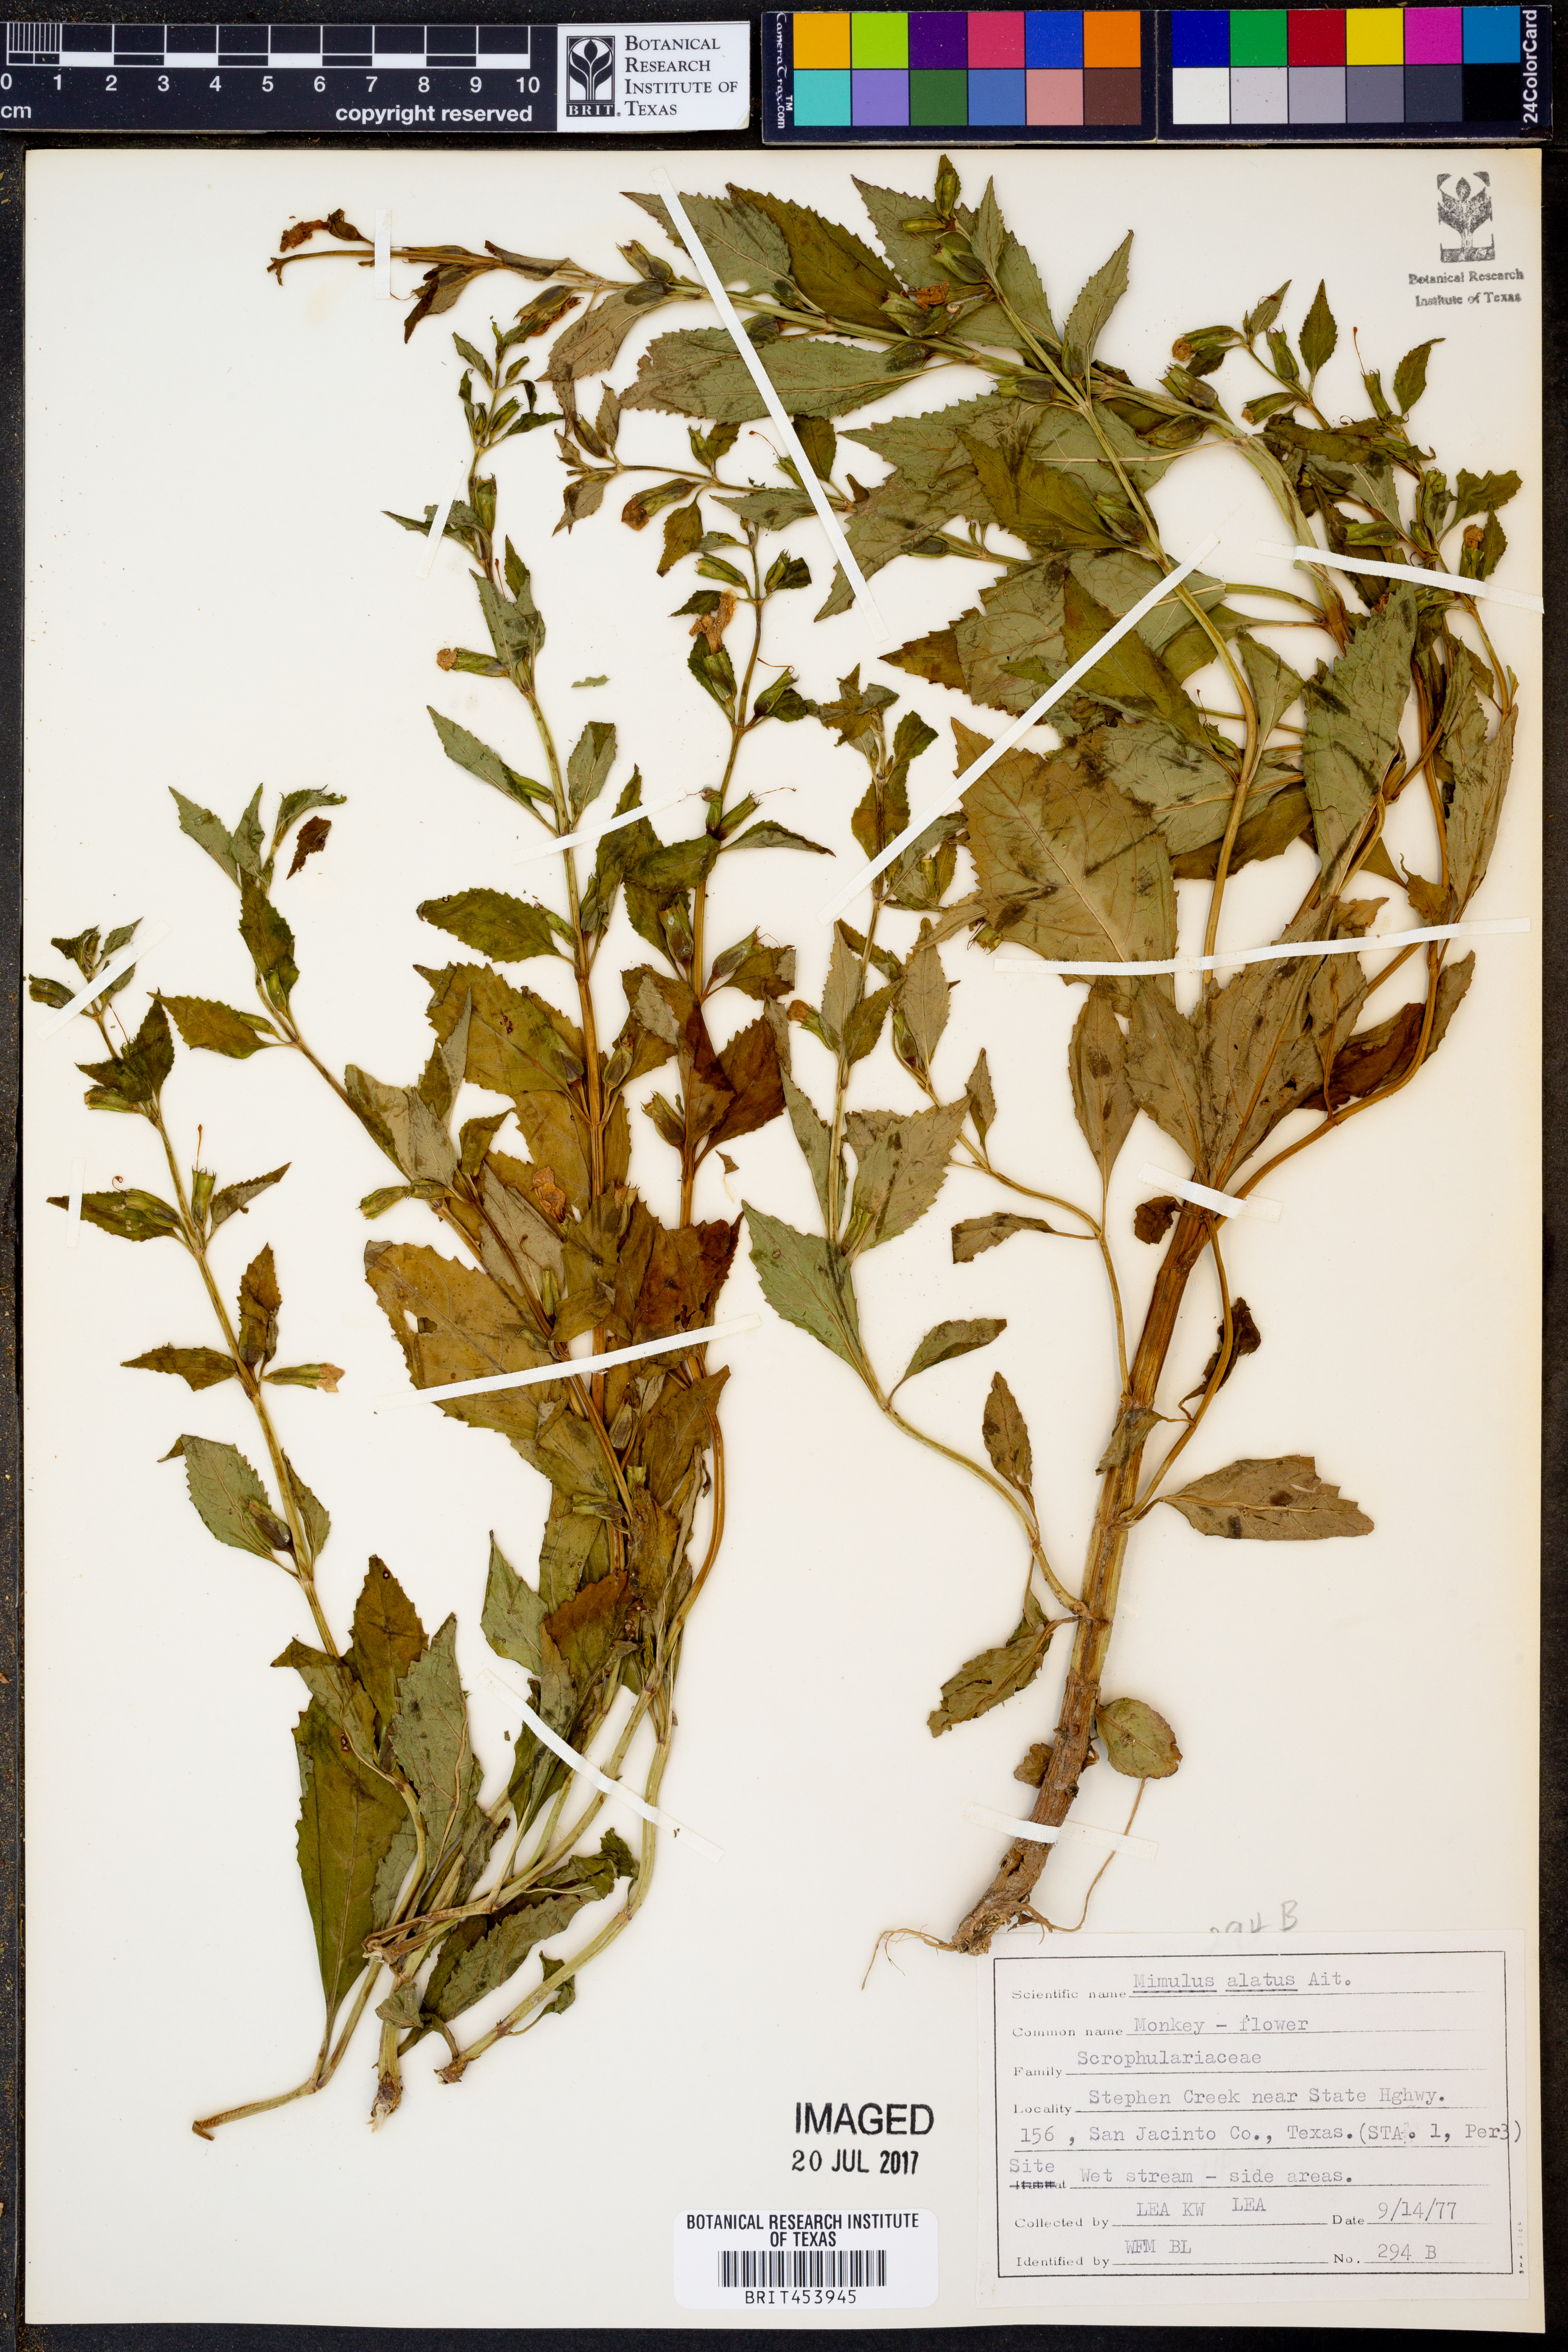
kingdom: Plantae
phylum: Tracheophyta
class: Magnoliopsida
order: Lamiales
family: Phrymaceae
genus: Mimulus
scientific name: Mimulus alatus
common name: Sharp-wing monkey-flower
